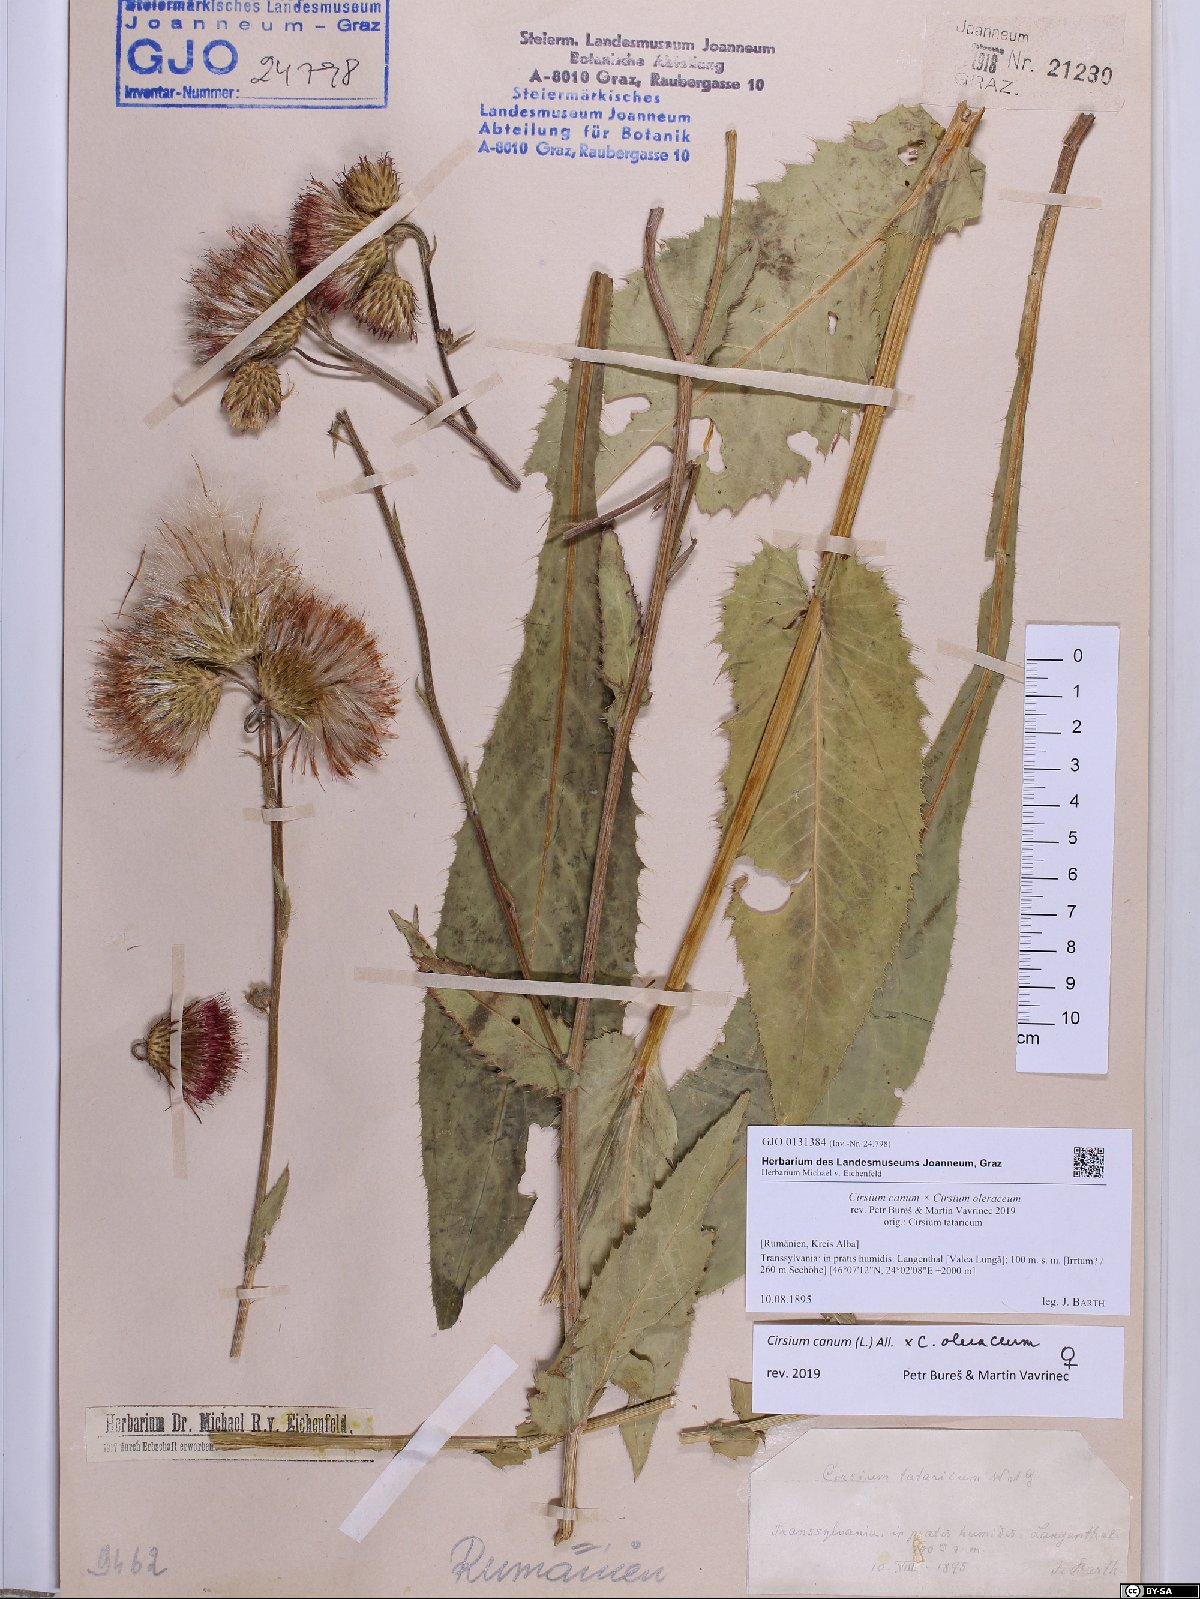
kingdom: Plantae
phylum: Tracheophyta
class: Magnoliopsida
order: Asterales
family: Asteraceae
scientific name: Asteraceae
